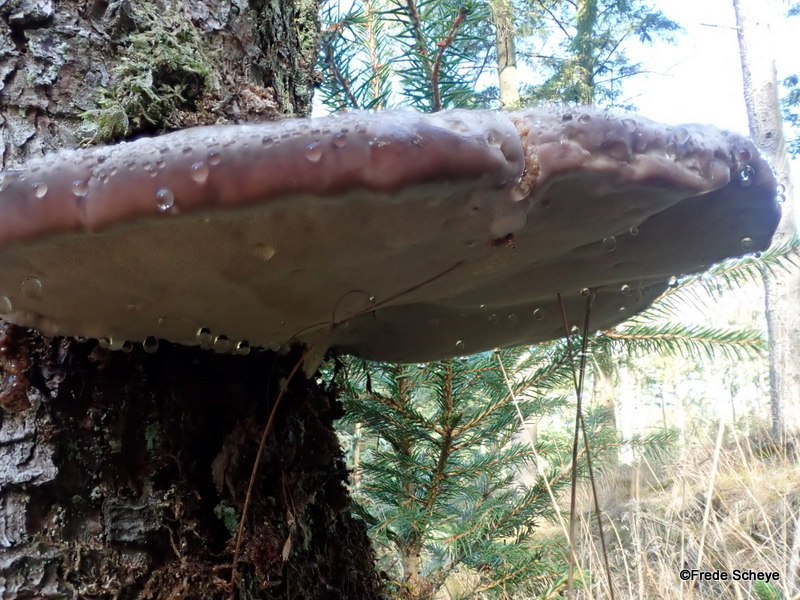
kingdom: Fungi
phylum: Basidiomycota
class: Agaricomycetes
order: Polyporales
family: Fomitopsidaceae
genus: Fomitopsis
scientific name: Fomitopsis pinicola
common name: randbæltet hovporesvamp
